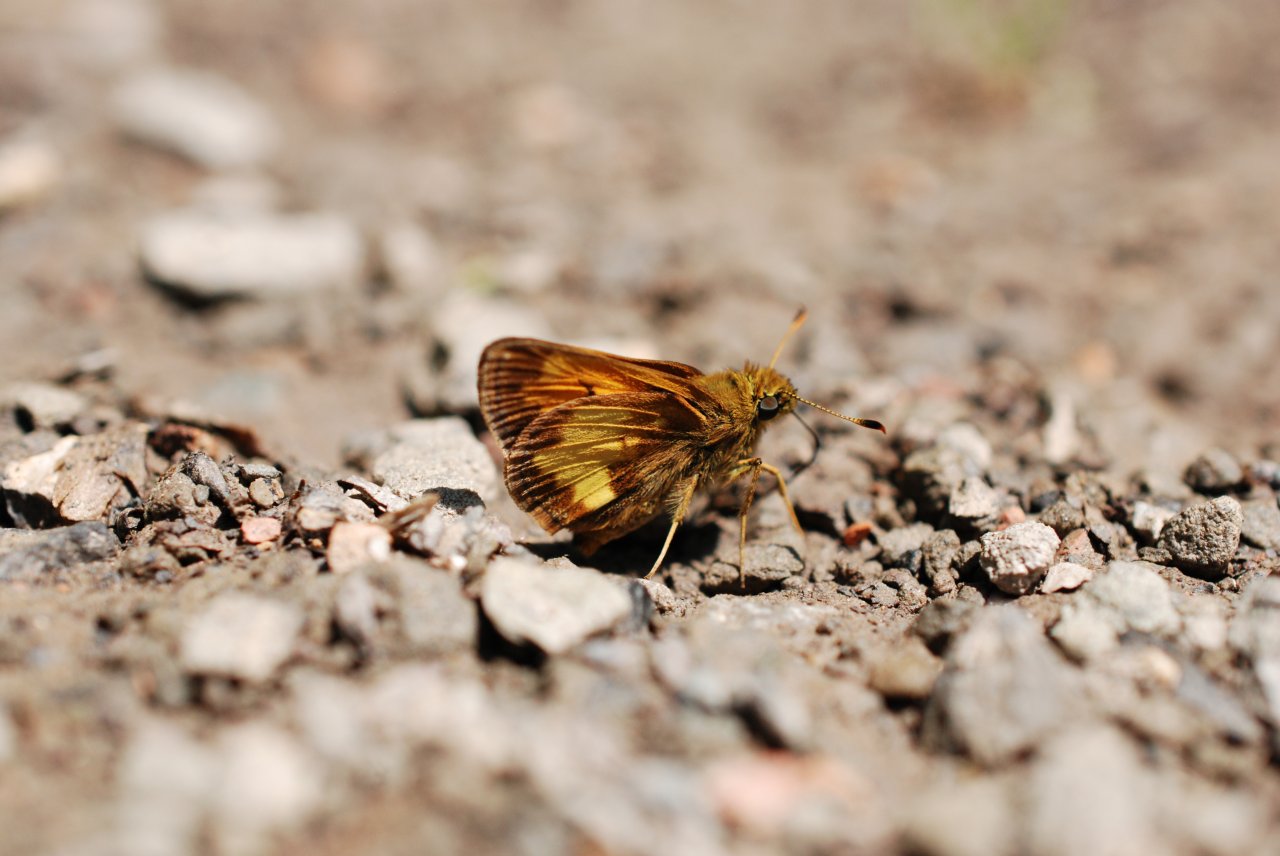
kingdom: Animalia
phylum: Arthropoda
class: Insecta
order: Lepidoptera
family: Hesperiidae
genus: Lon
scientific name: Lon hobomok
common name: Hobomok Skipper
